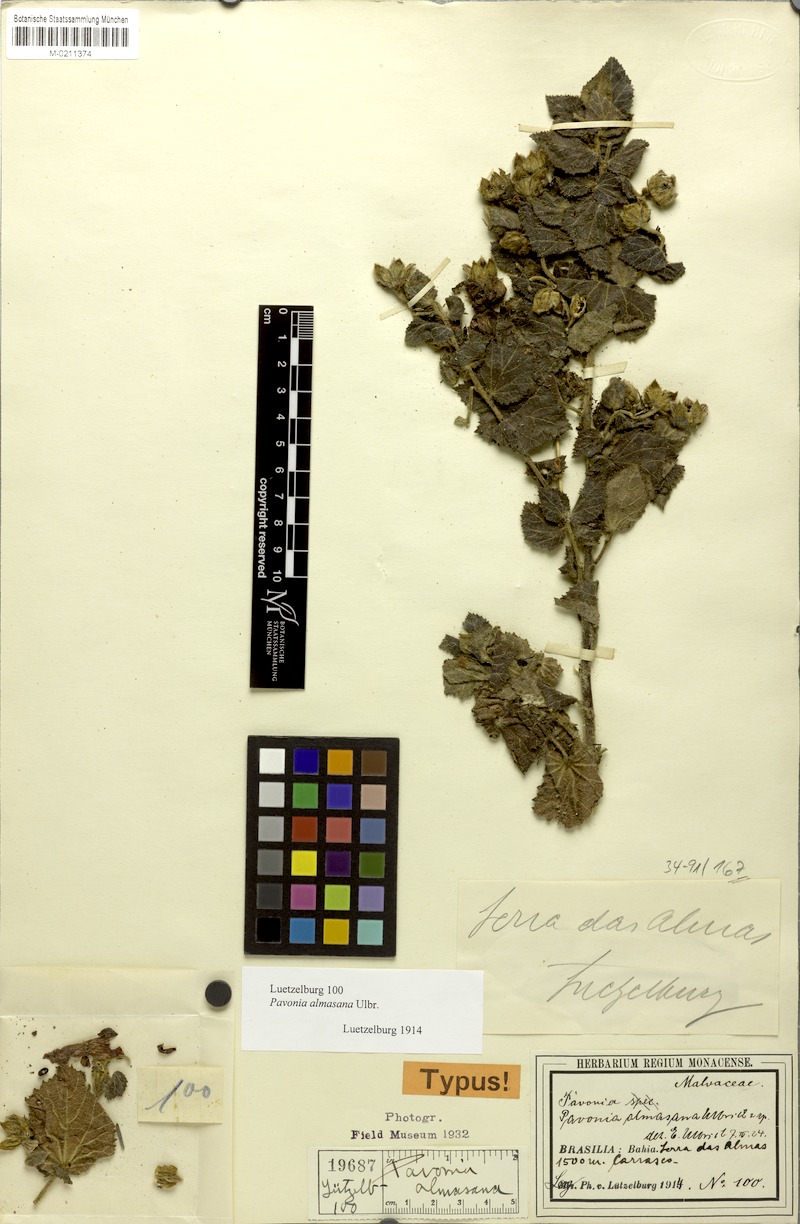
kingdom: Plantae
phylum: Tracheophyta
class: Magnoliopsida
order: Malvales
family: Malvaceae
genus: Pavonia
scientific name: Pavonia almasana
